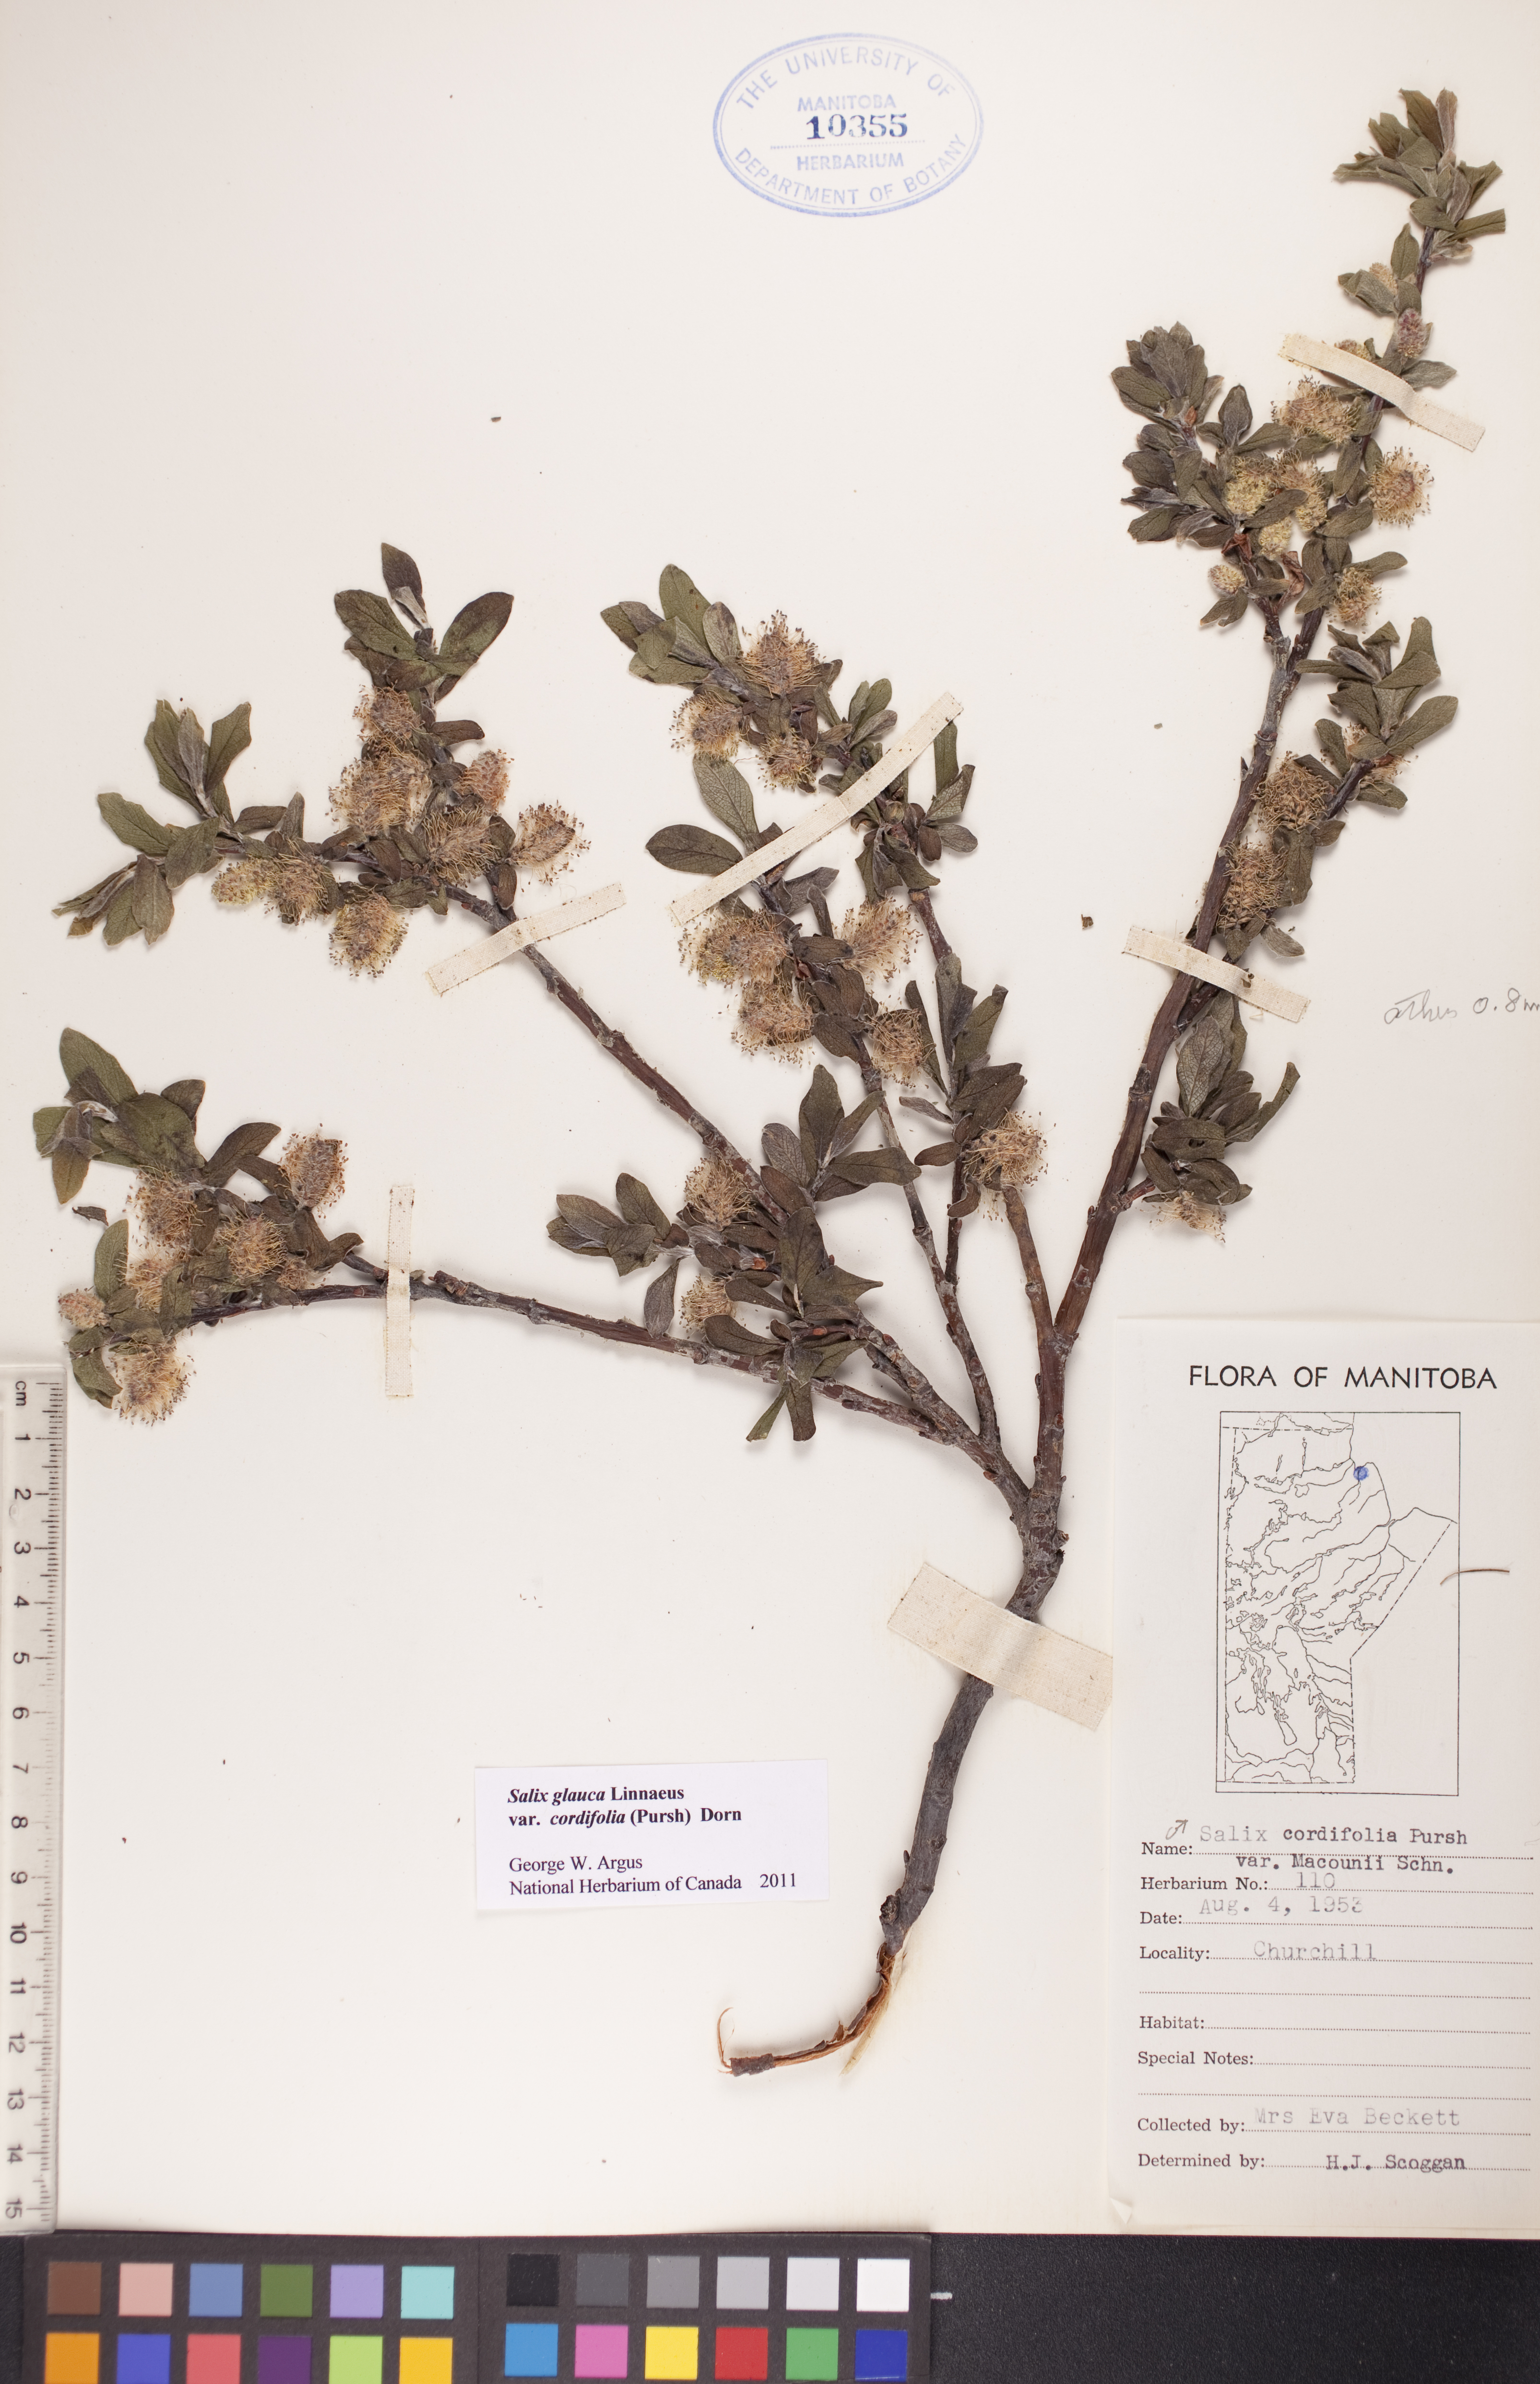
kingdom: Plantae
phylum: Tracheophyta
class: Magnoliopsida
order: Malpighiales
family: Salicaceae
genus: Salix
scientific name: Salix glauca
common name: Glaucous willow
